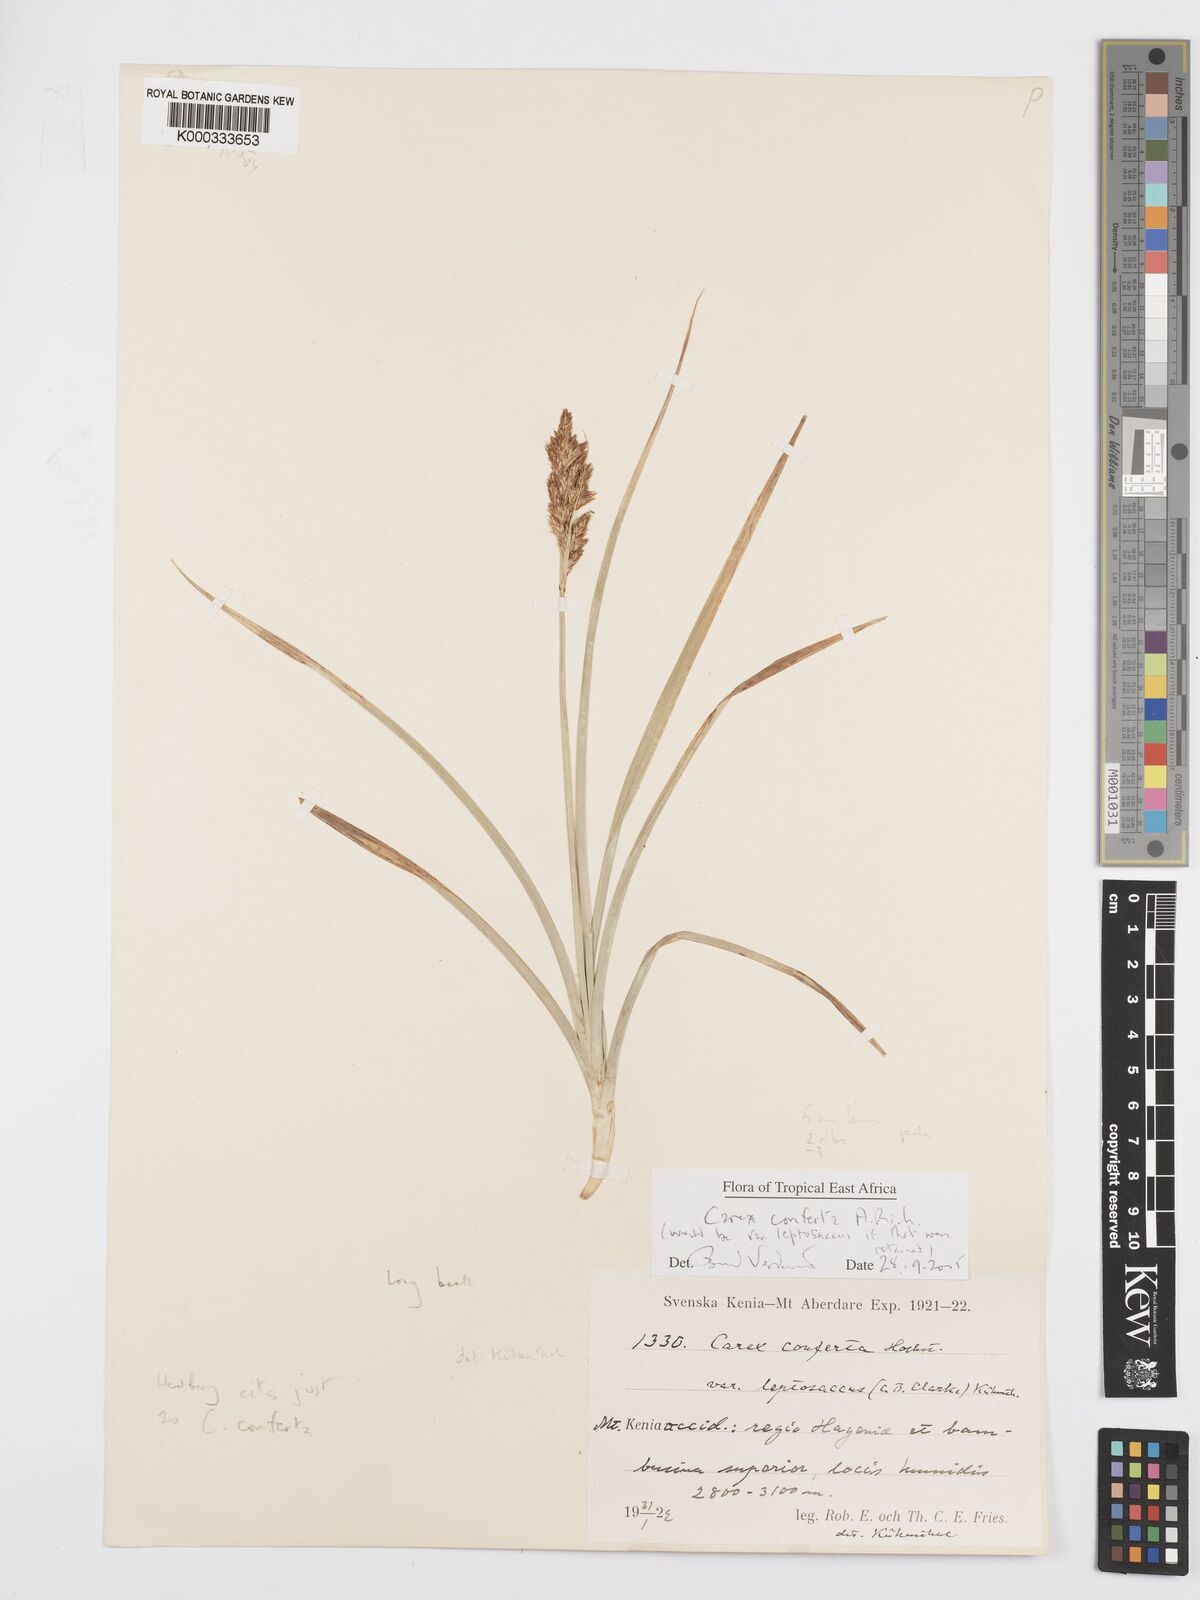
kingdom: Plantae
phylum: Tracheophyta
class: Liliopsida
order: Poales
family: Cyperaceae
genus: Carex
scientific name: Carex conferta
